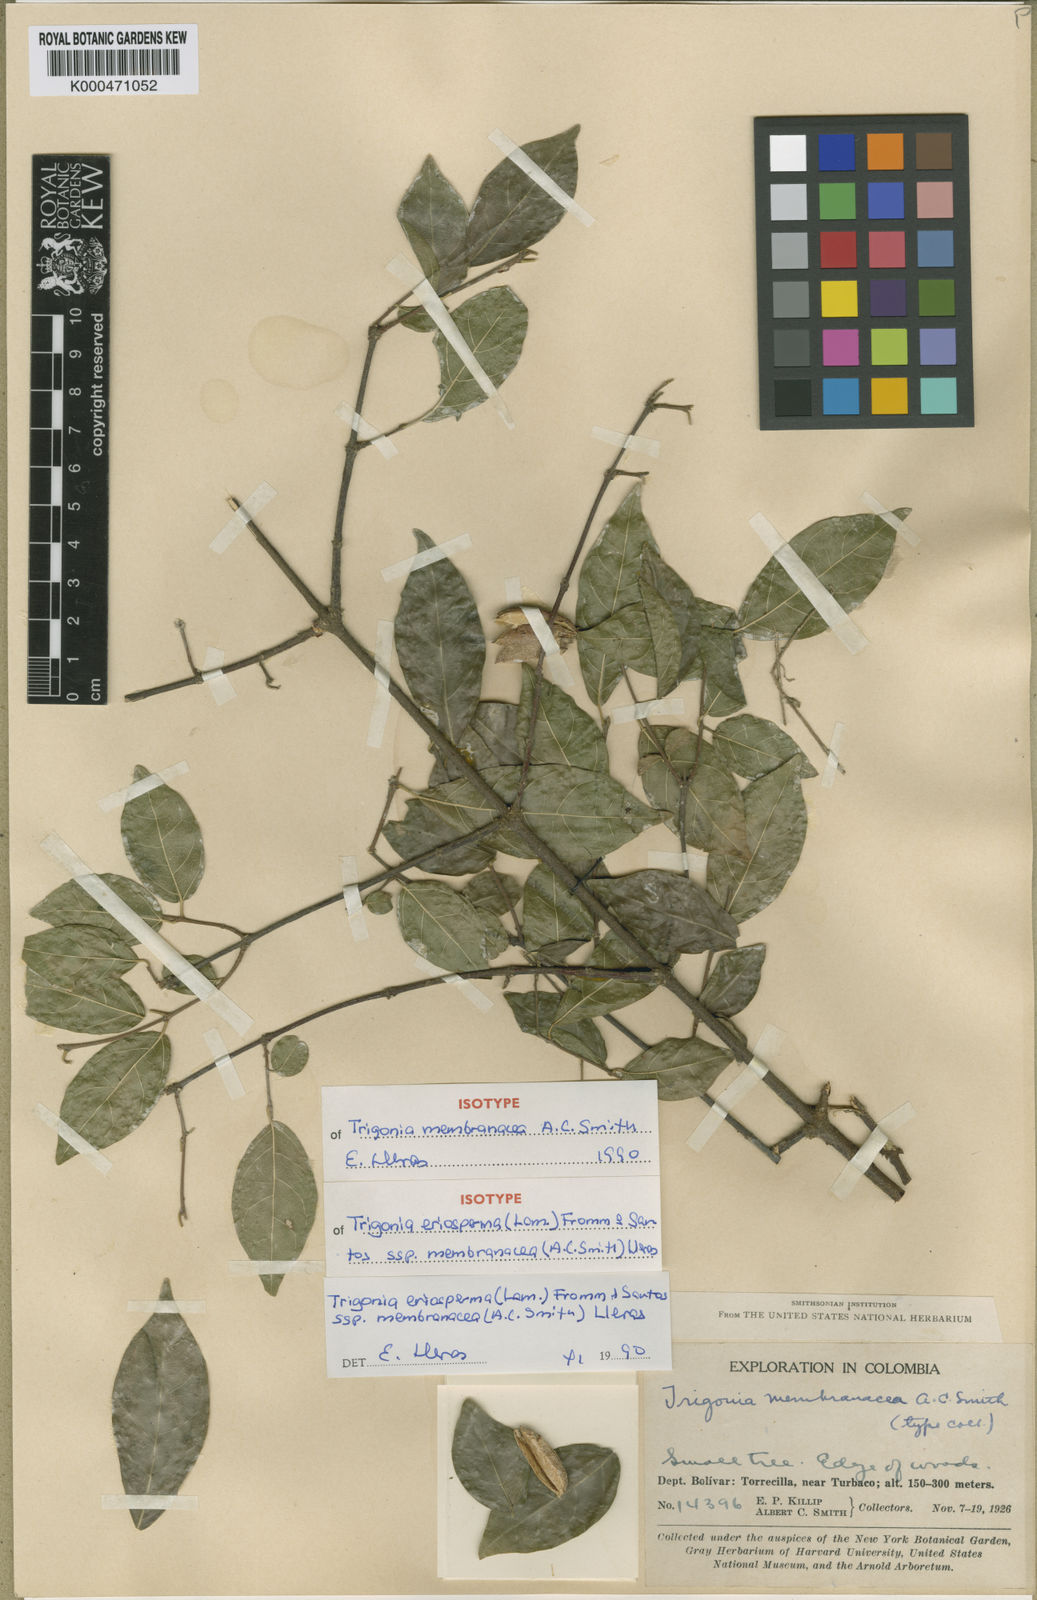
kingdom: Plantae
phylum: Tracheophyta
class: Magnoliopsida
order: Malpighiales
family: Trigoniaceae
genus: Trigonia
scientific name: Trigonia eriosperma
